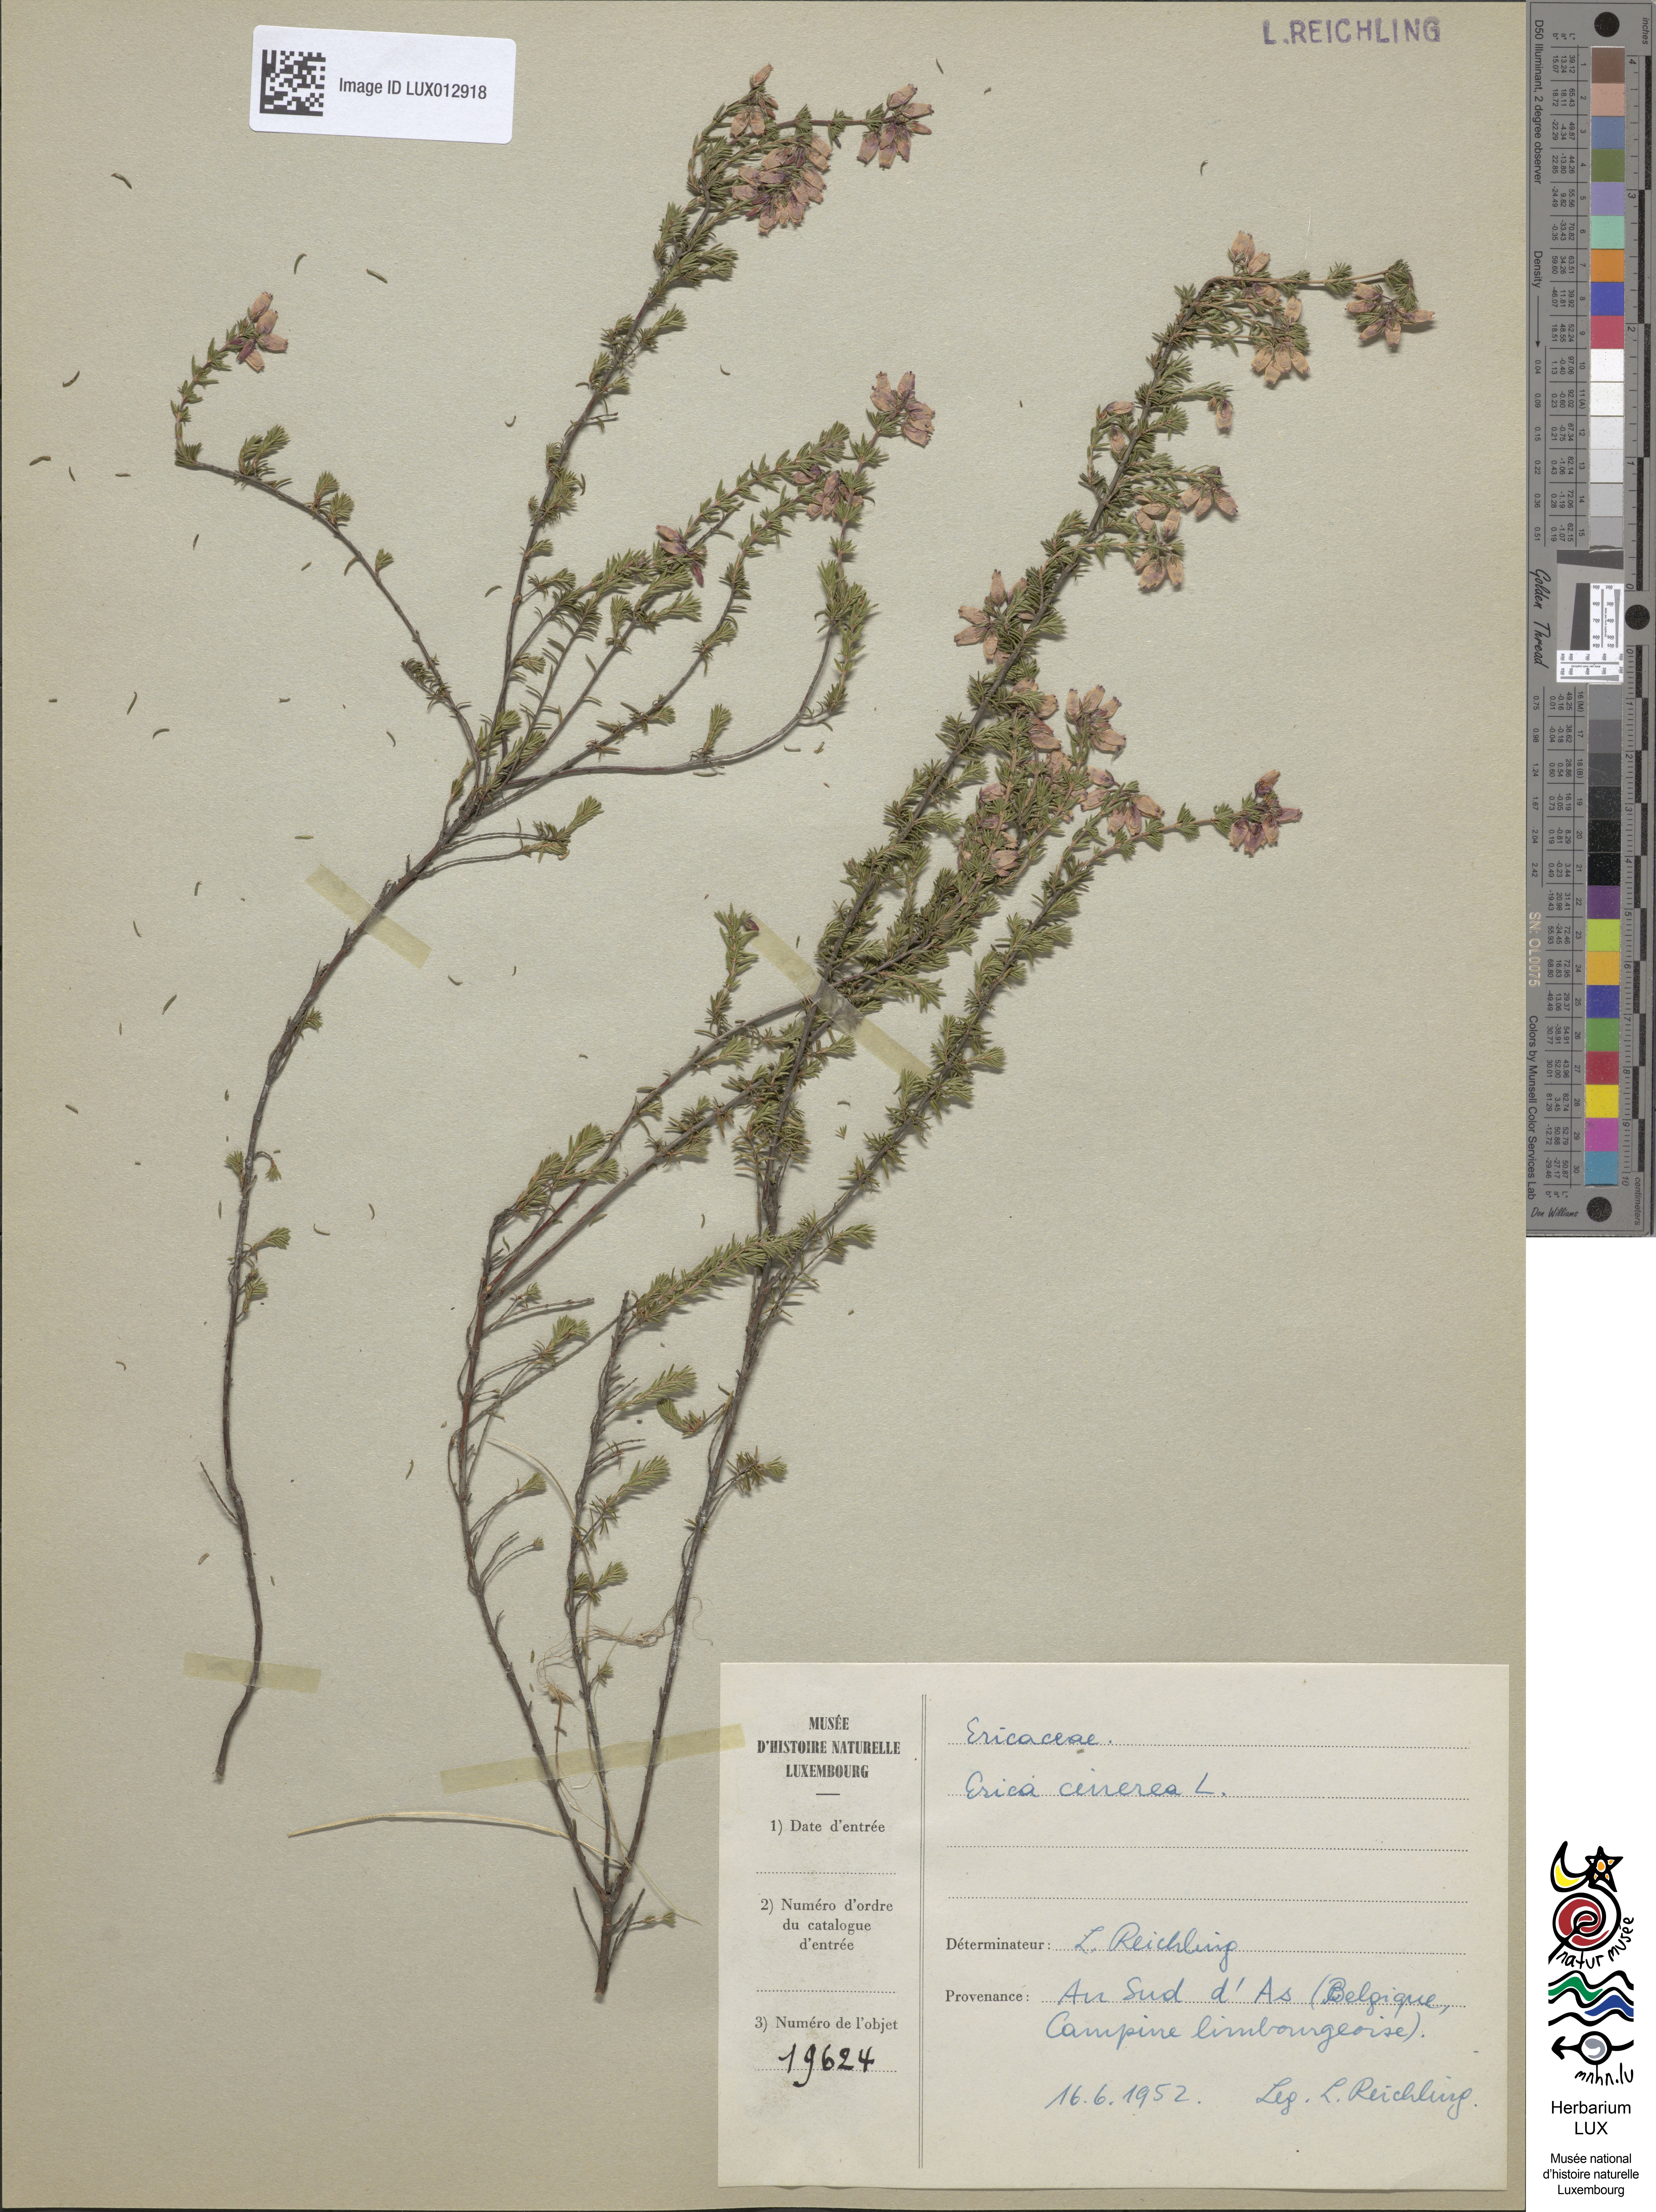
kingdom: Plantae
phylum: Tracheophyta
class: Magnoliopsida
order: Ericales
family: Ericaceae
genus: Erica
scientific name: Erica cinerea
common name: Bell heather
